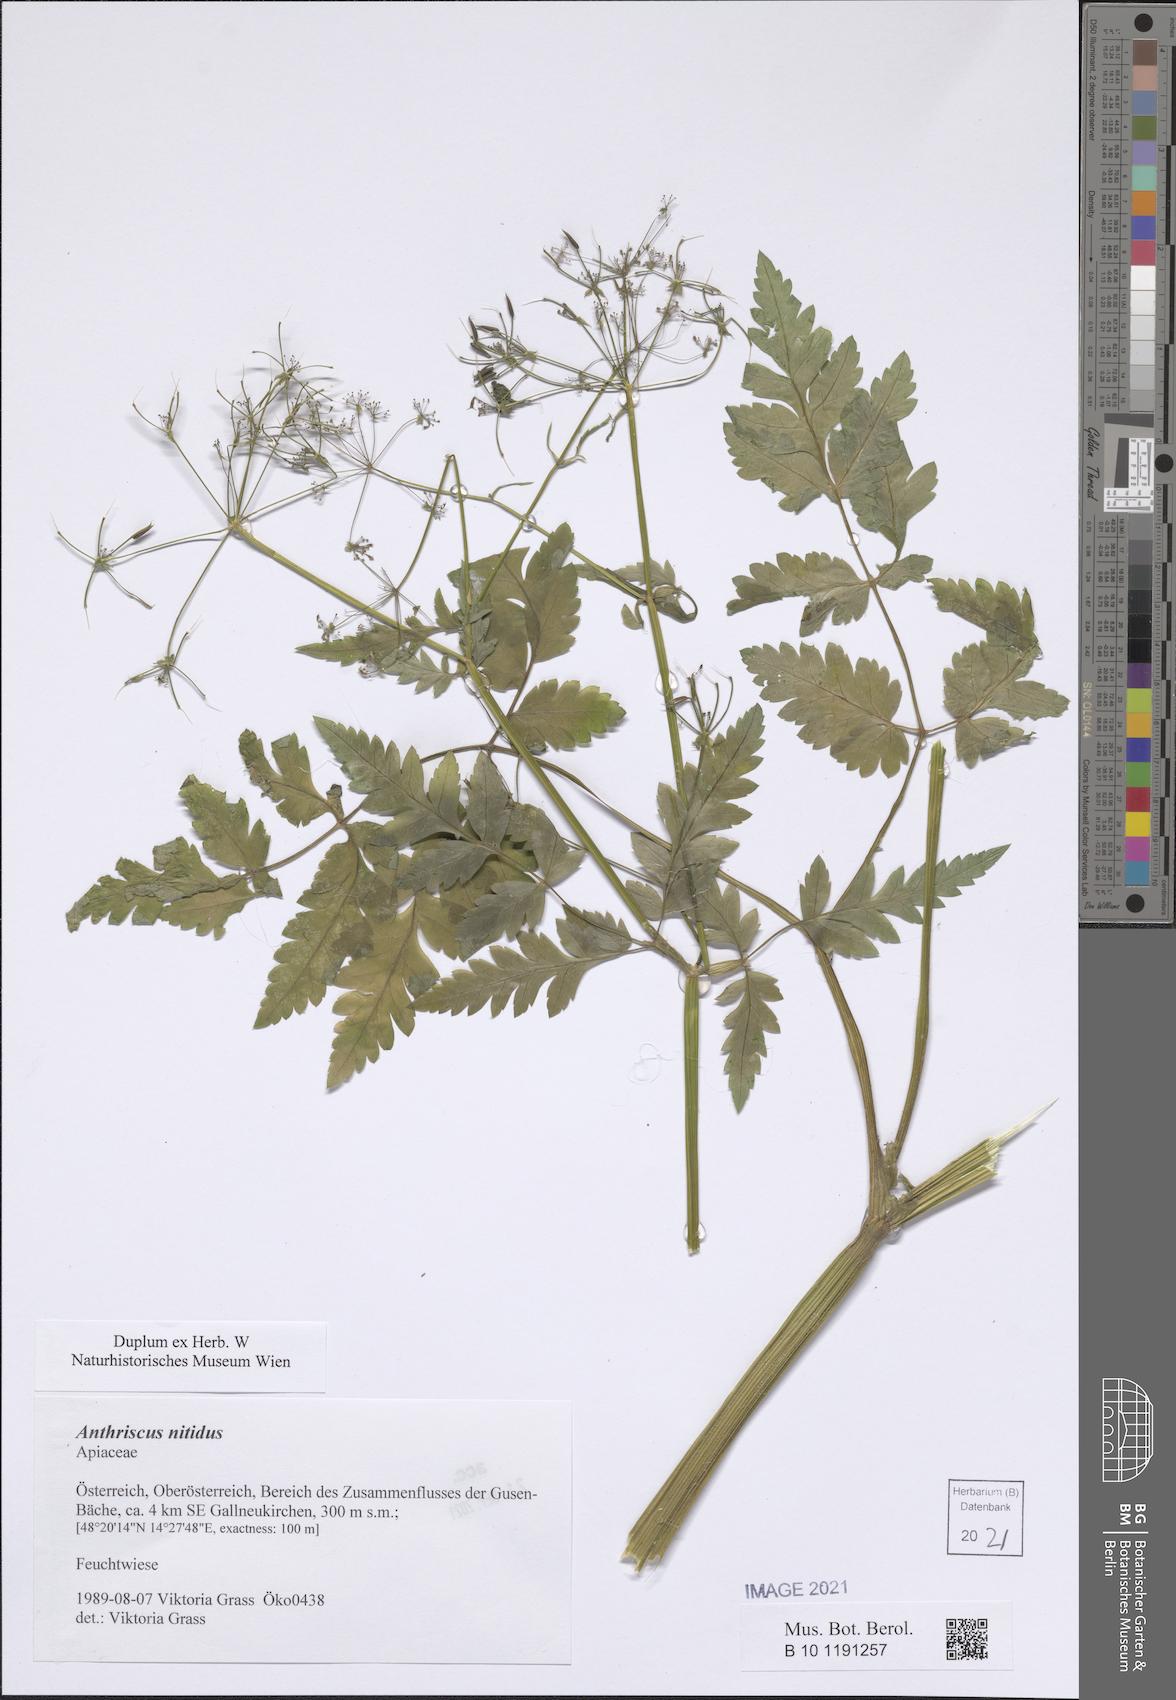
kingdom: Plantae
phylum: Tracheophyta
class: Magnoliopsida
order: Apiales
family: Apiaceae
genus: Anthriscus
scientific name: Anthriscus nitida
